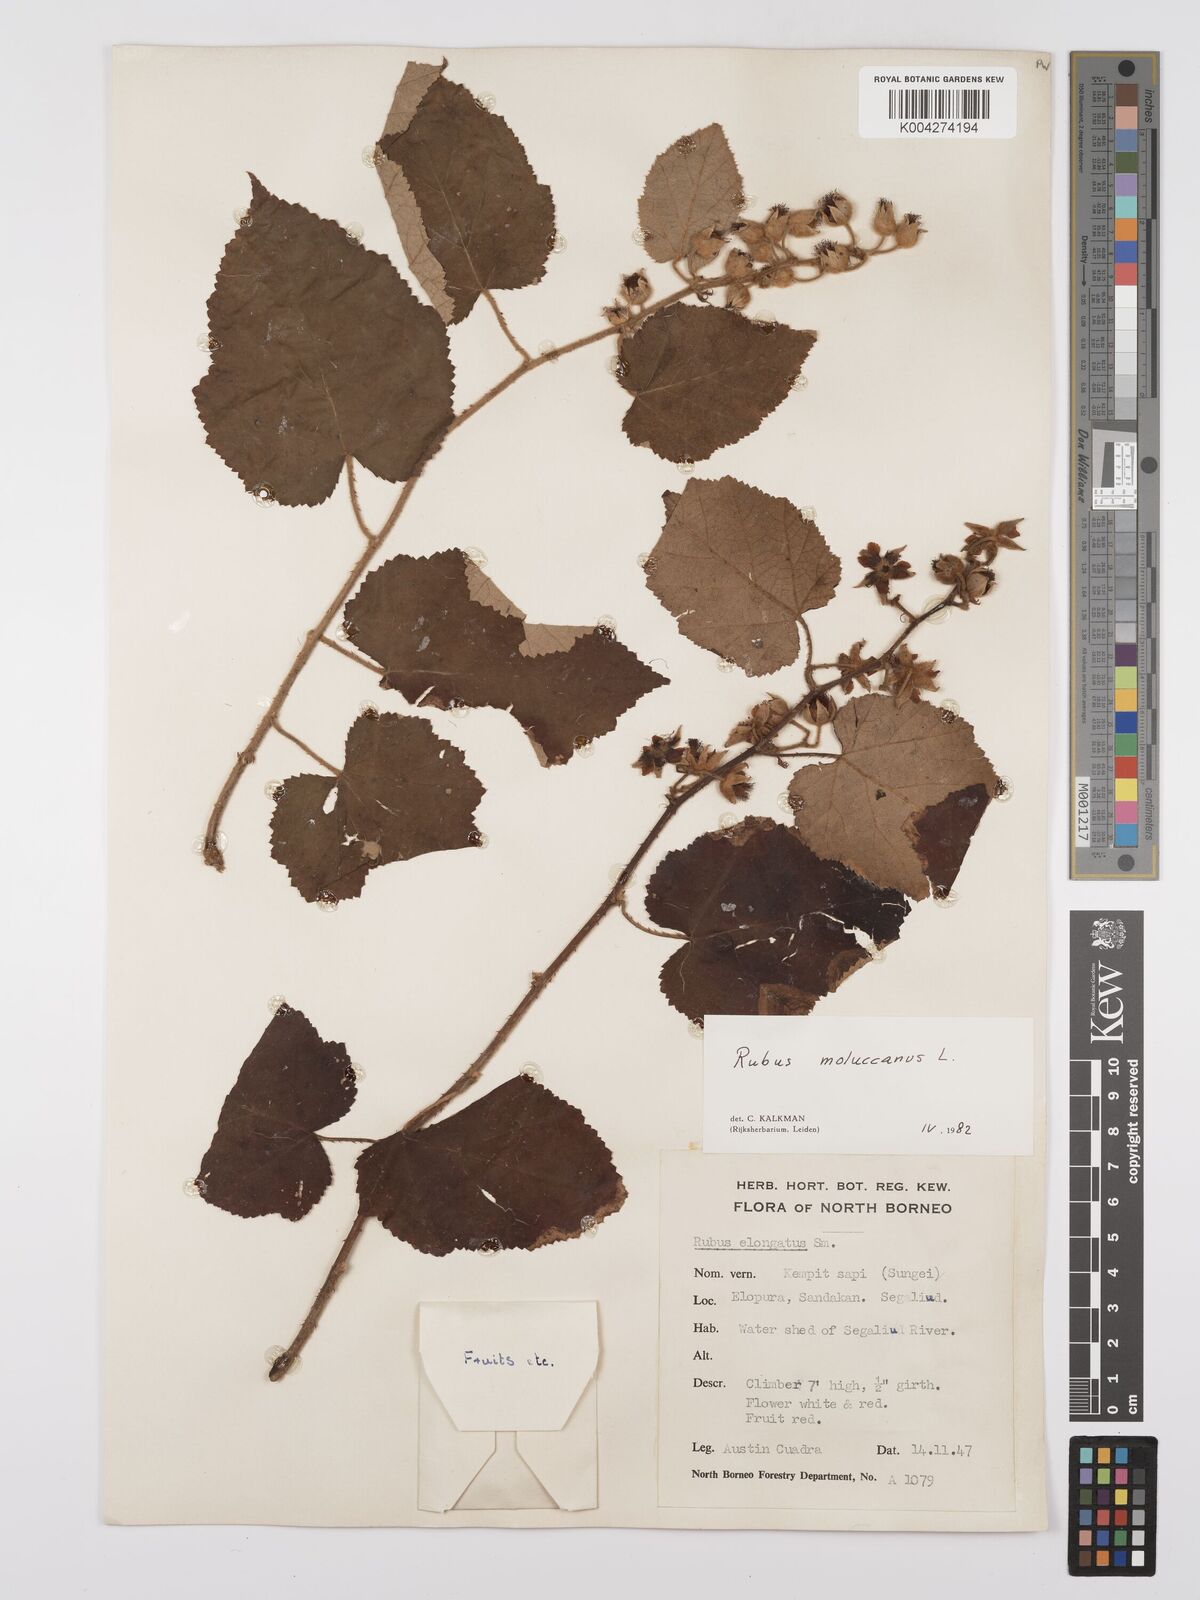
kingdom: Plantae
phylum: Tracheophyta
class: Magnoliopsida
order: Rosales
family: Rosaceae
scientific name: Rosaceae
